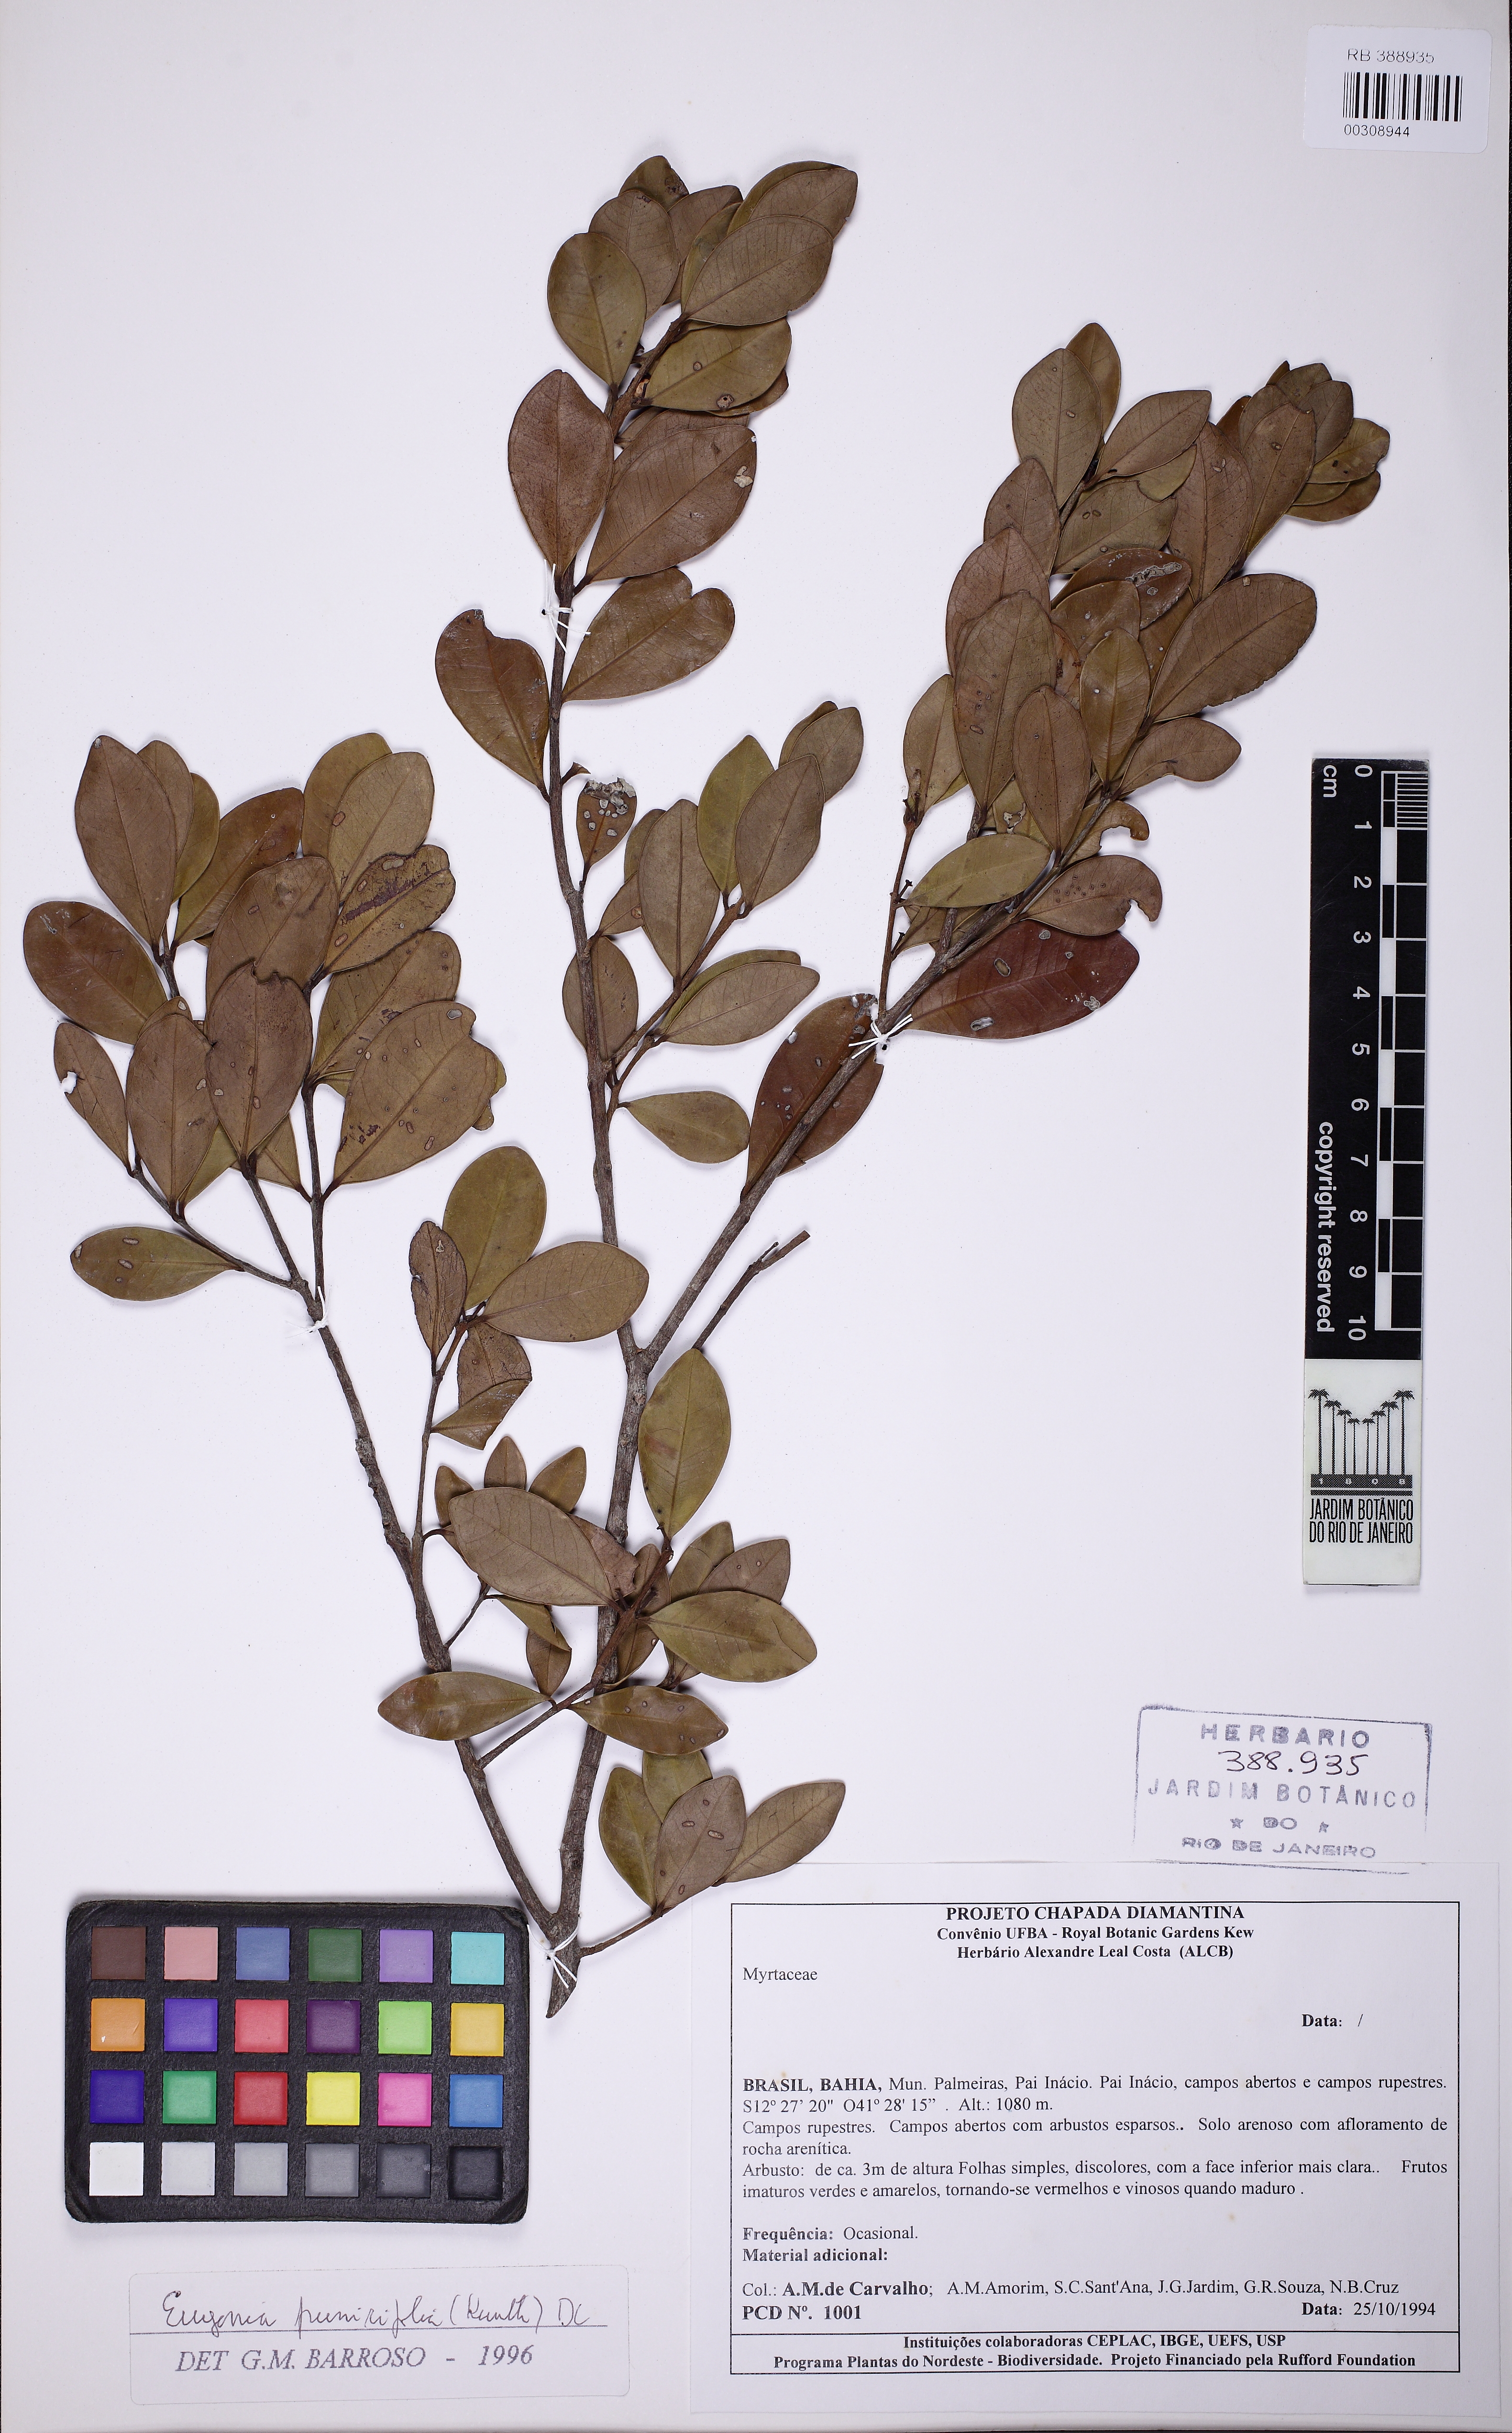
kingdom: Plantae
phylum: Tracheophyta
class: Magnoliopsida
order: Myrtales
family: Myrtaceae
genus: Eugenia
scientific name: Eugenia sonderiana
